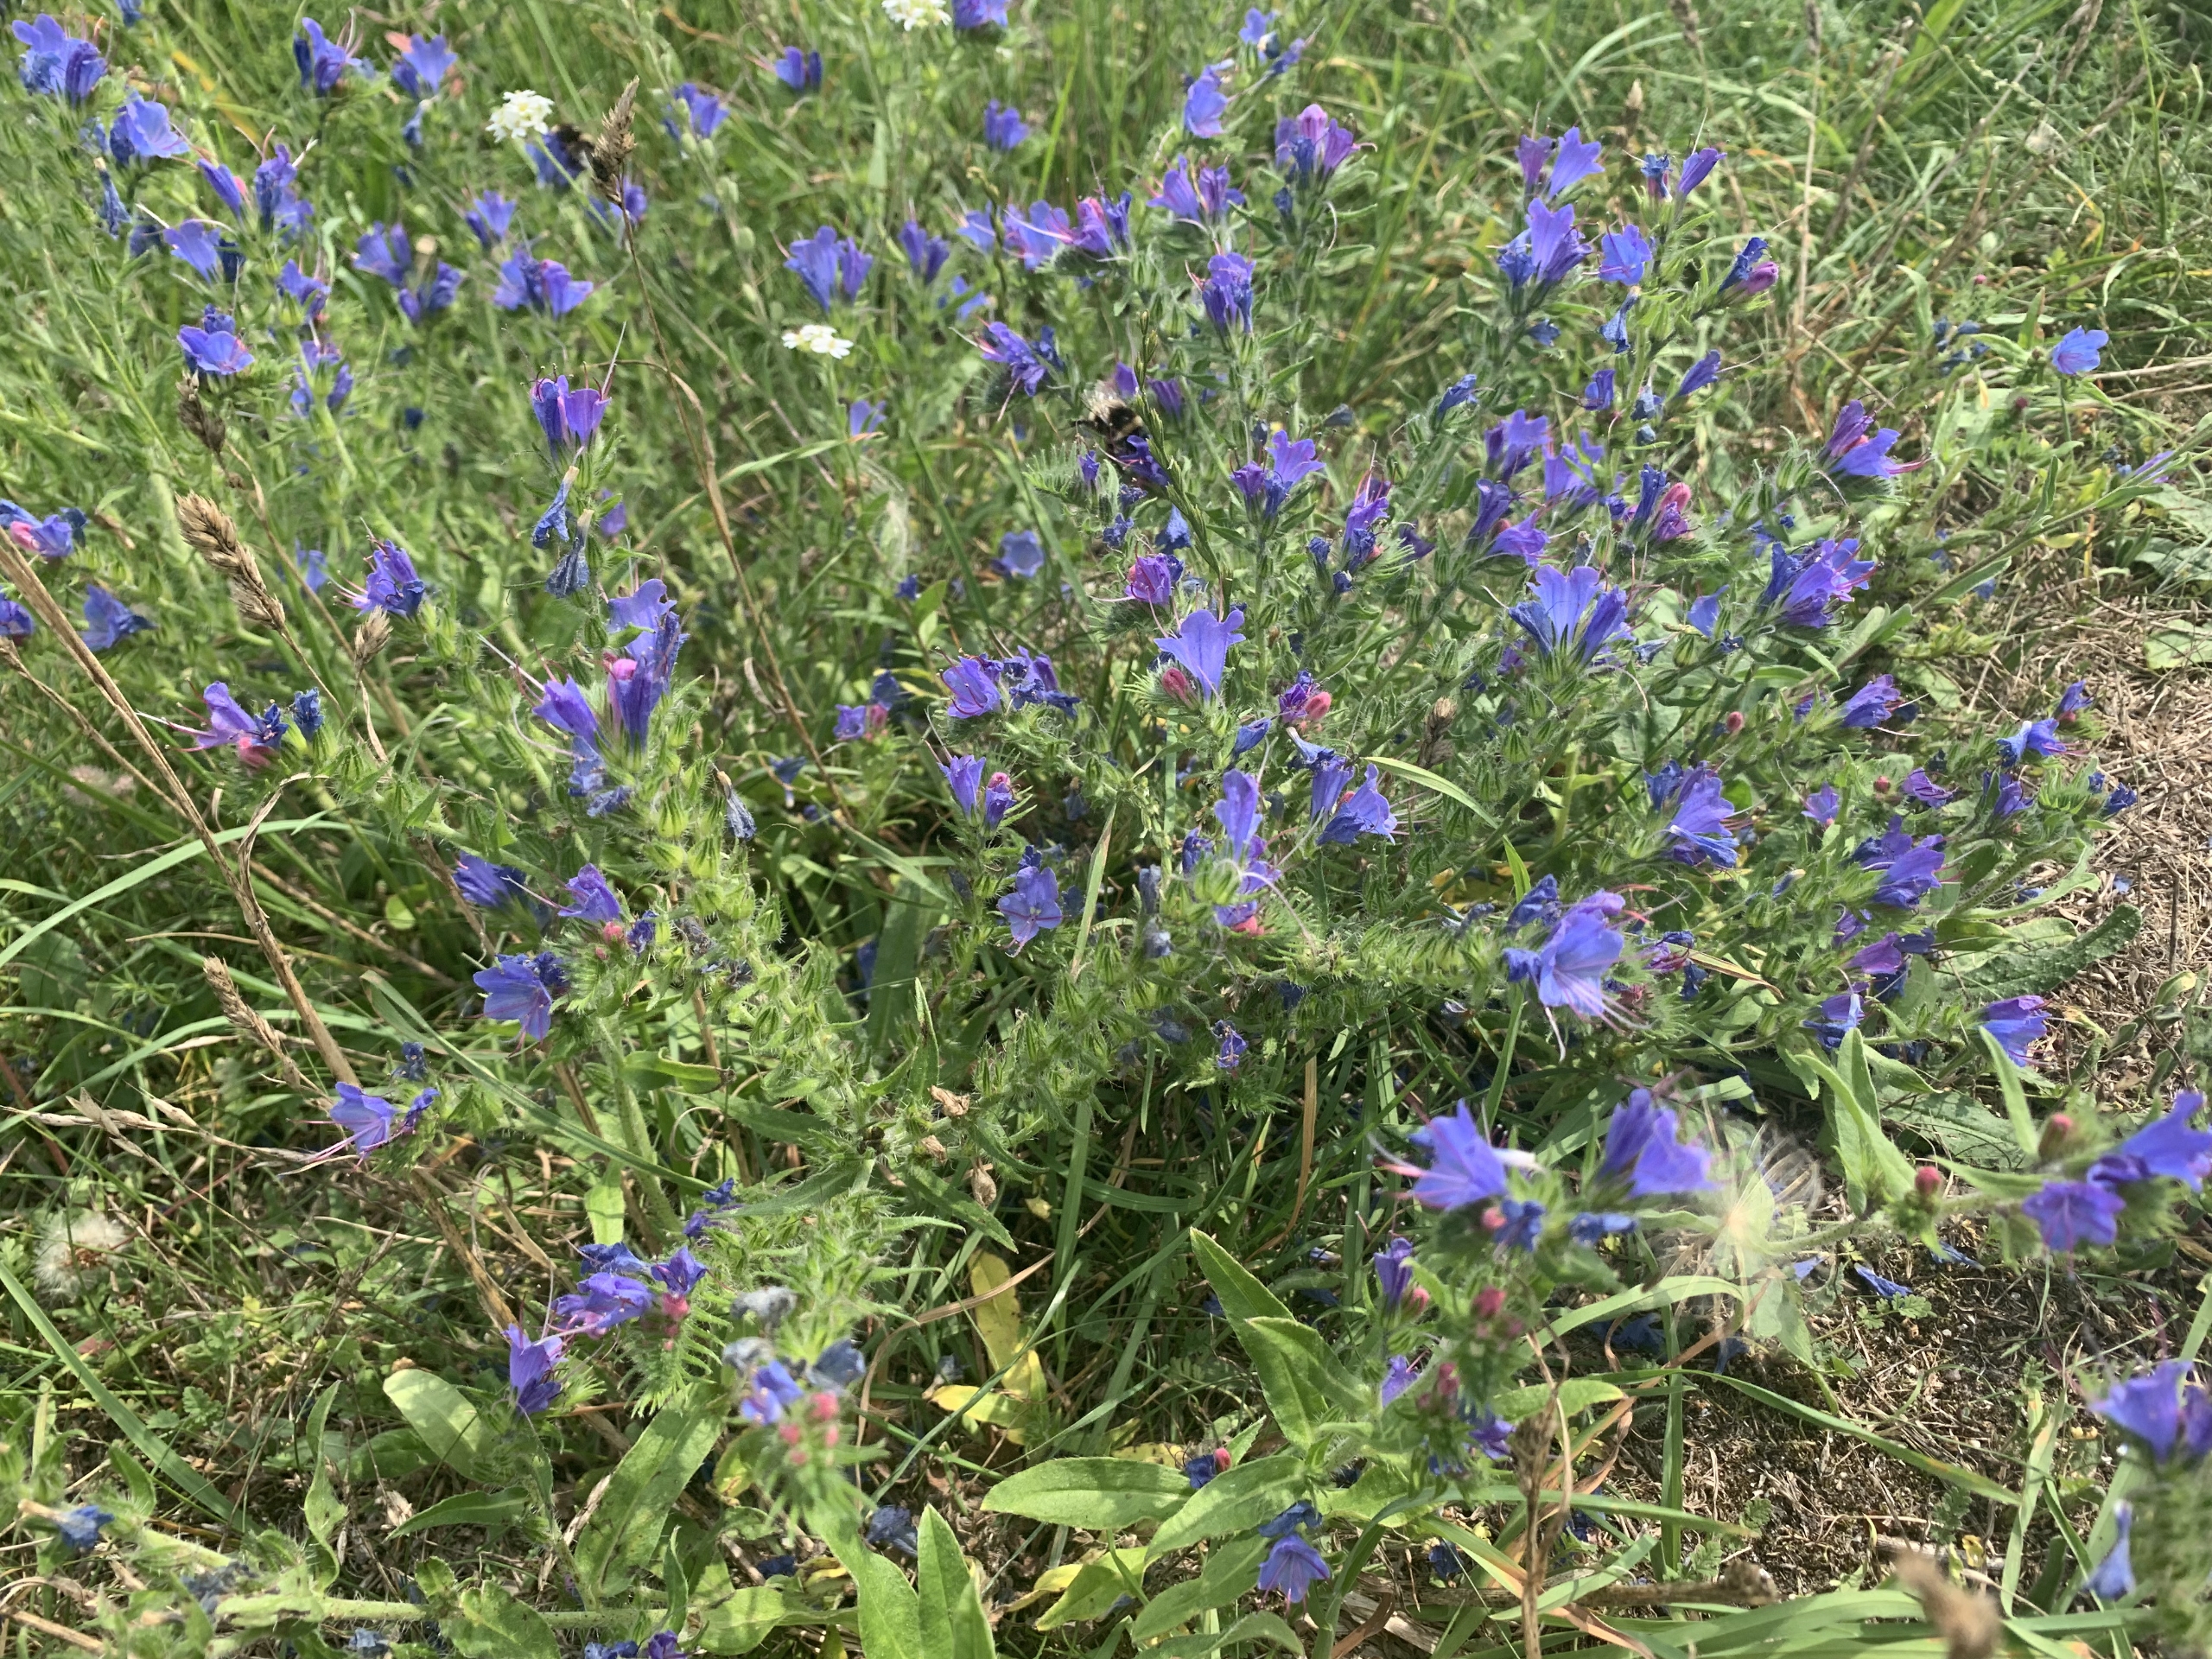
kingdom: Plantae
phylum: Tracheophyta
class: Magnoliopsida
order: Boraginales
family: Boraginaceae
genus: Echium
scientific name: Echium vulgare
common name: Slangehoved
